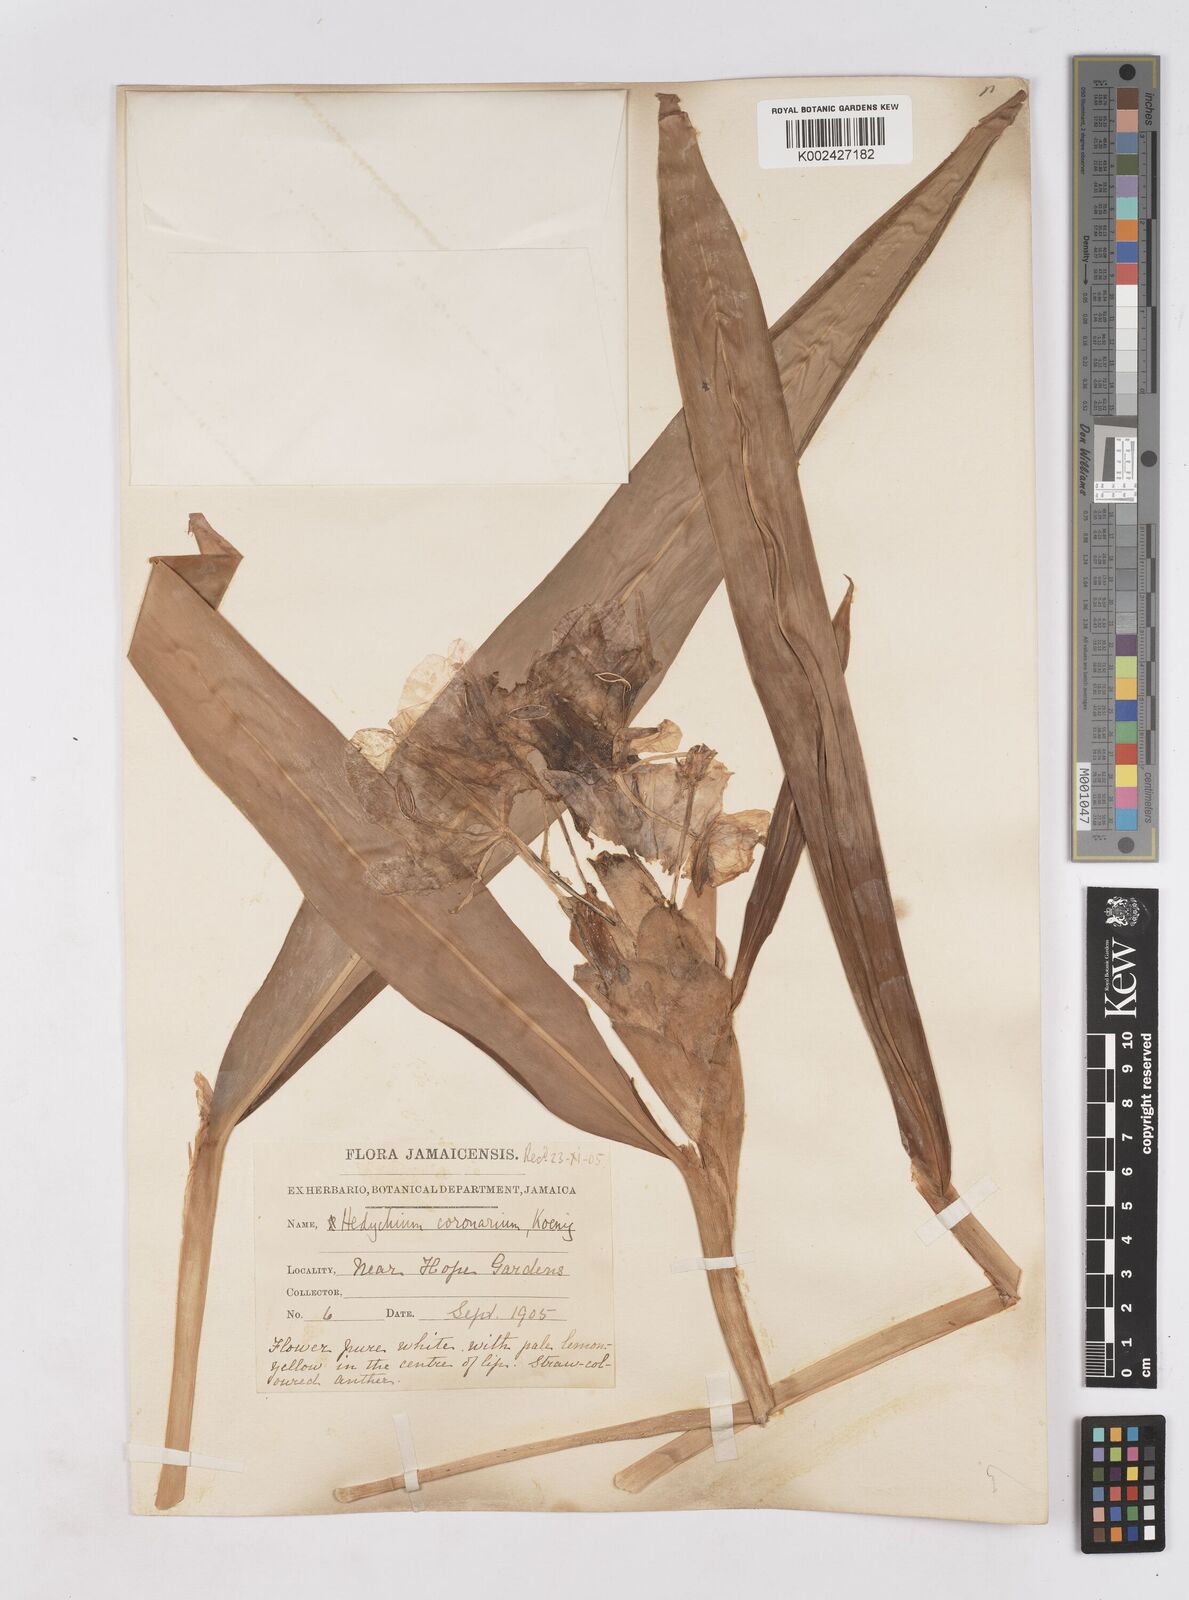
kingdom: Plantae
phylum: Tracheophyta
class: Liliopsida
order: Zingiberales
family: Zingiberaceae
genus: Hedychium
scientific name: Hedychium coronarium
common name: White garland-lily
